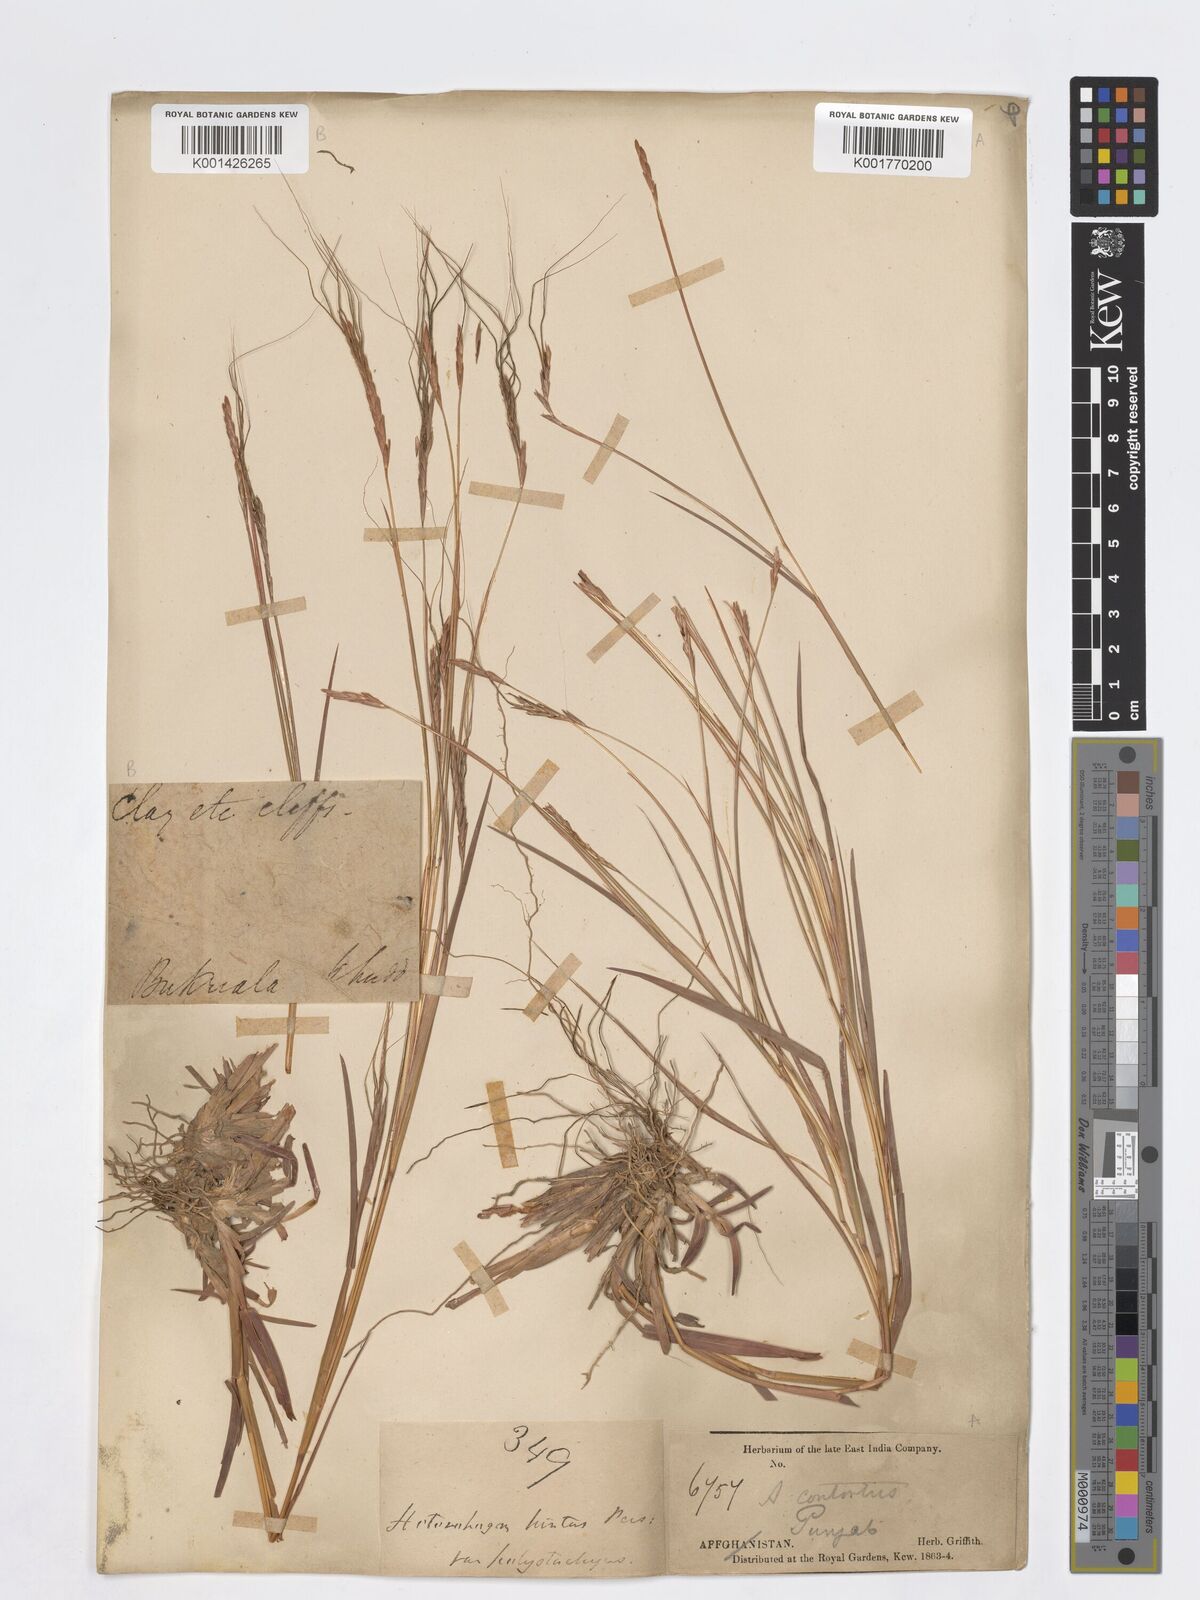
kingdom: Plantae
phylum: Tracheophyta
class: Liliopsida
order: Poales
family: Poaceae
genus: Heteropogon
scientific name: Heteropogon contortus
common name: Tanglehead
